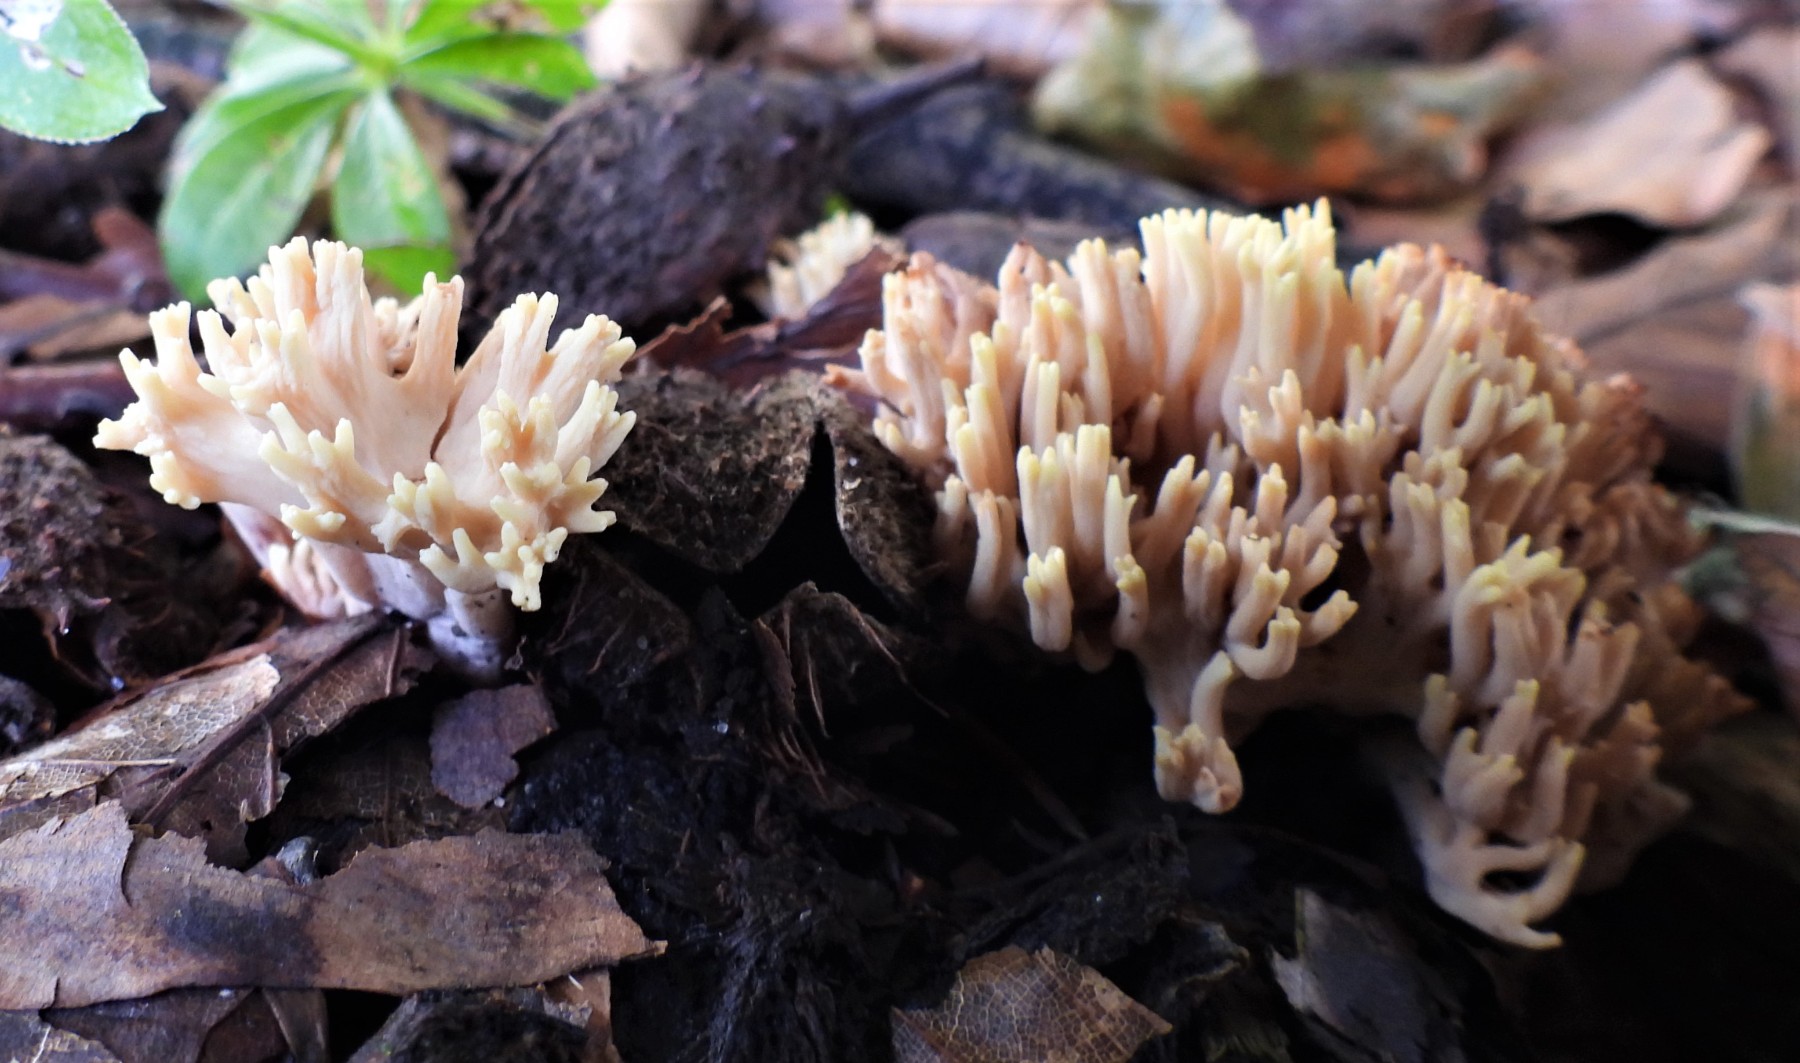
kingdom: Fungi
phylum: Basidiomycota
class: Agaricomycetes
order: Gomphales
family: Gomphaceae
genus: Ramaria
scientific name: Ramaria stricta
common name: rank koralsvamp
